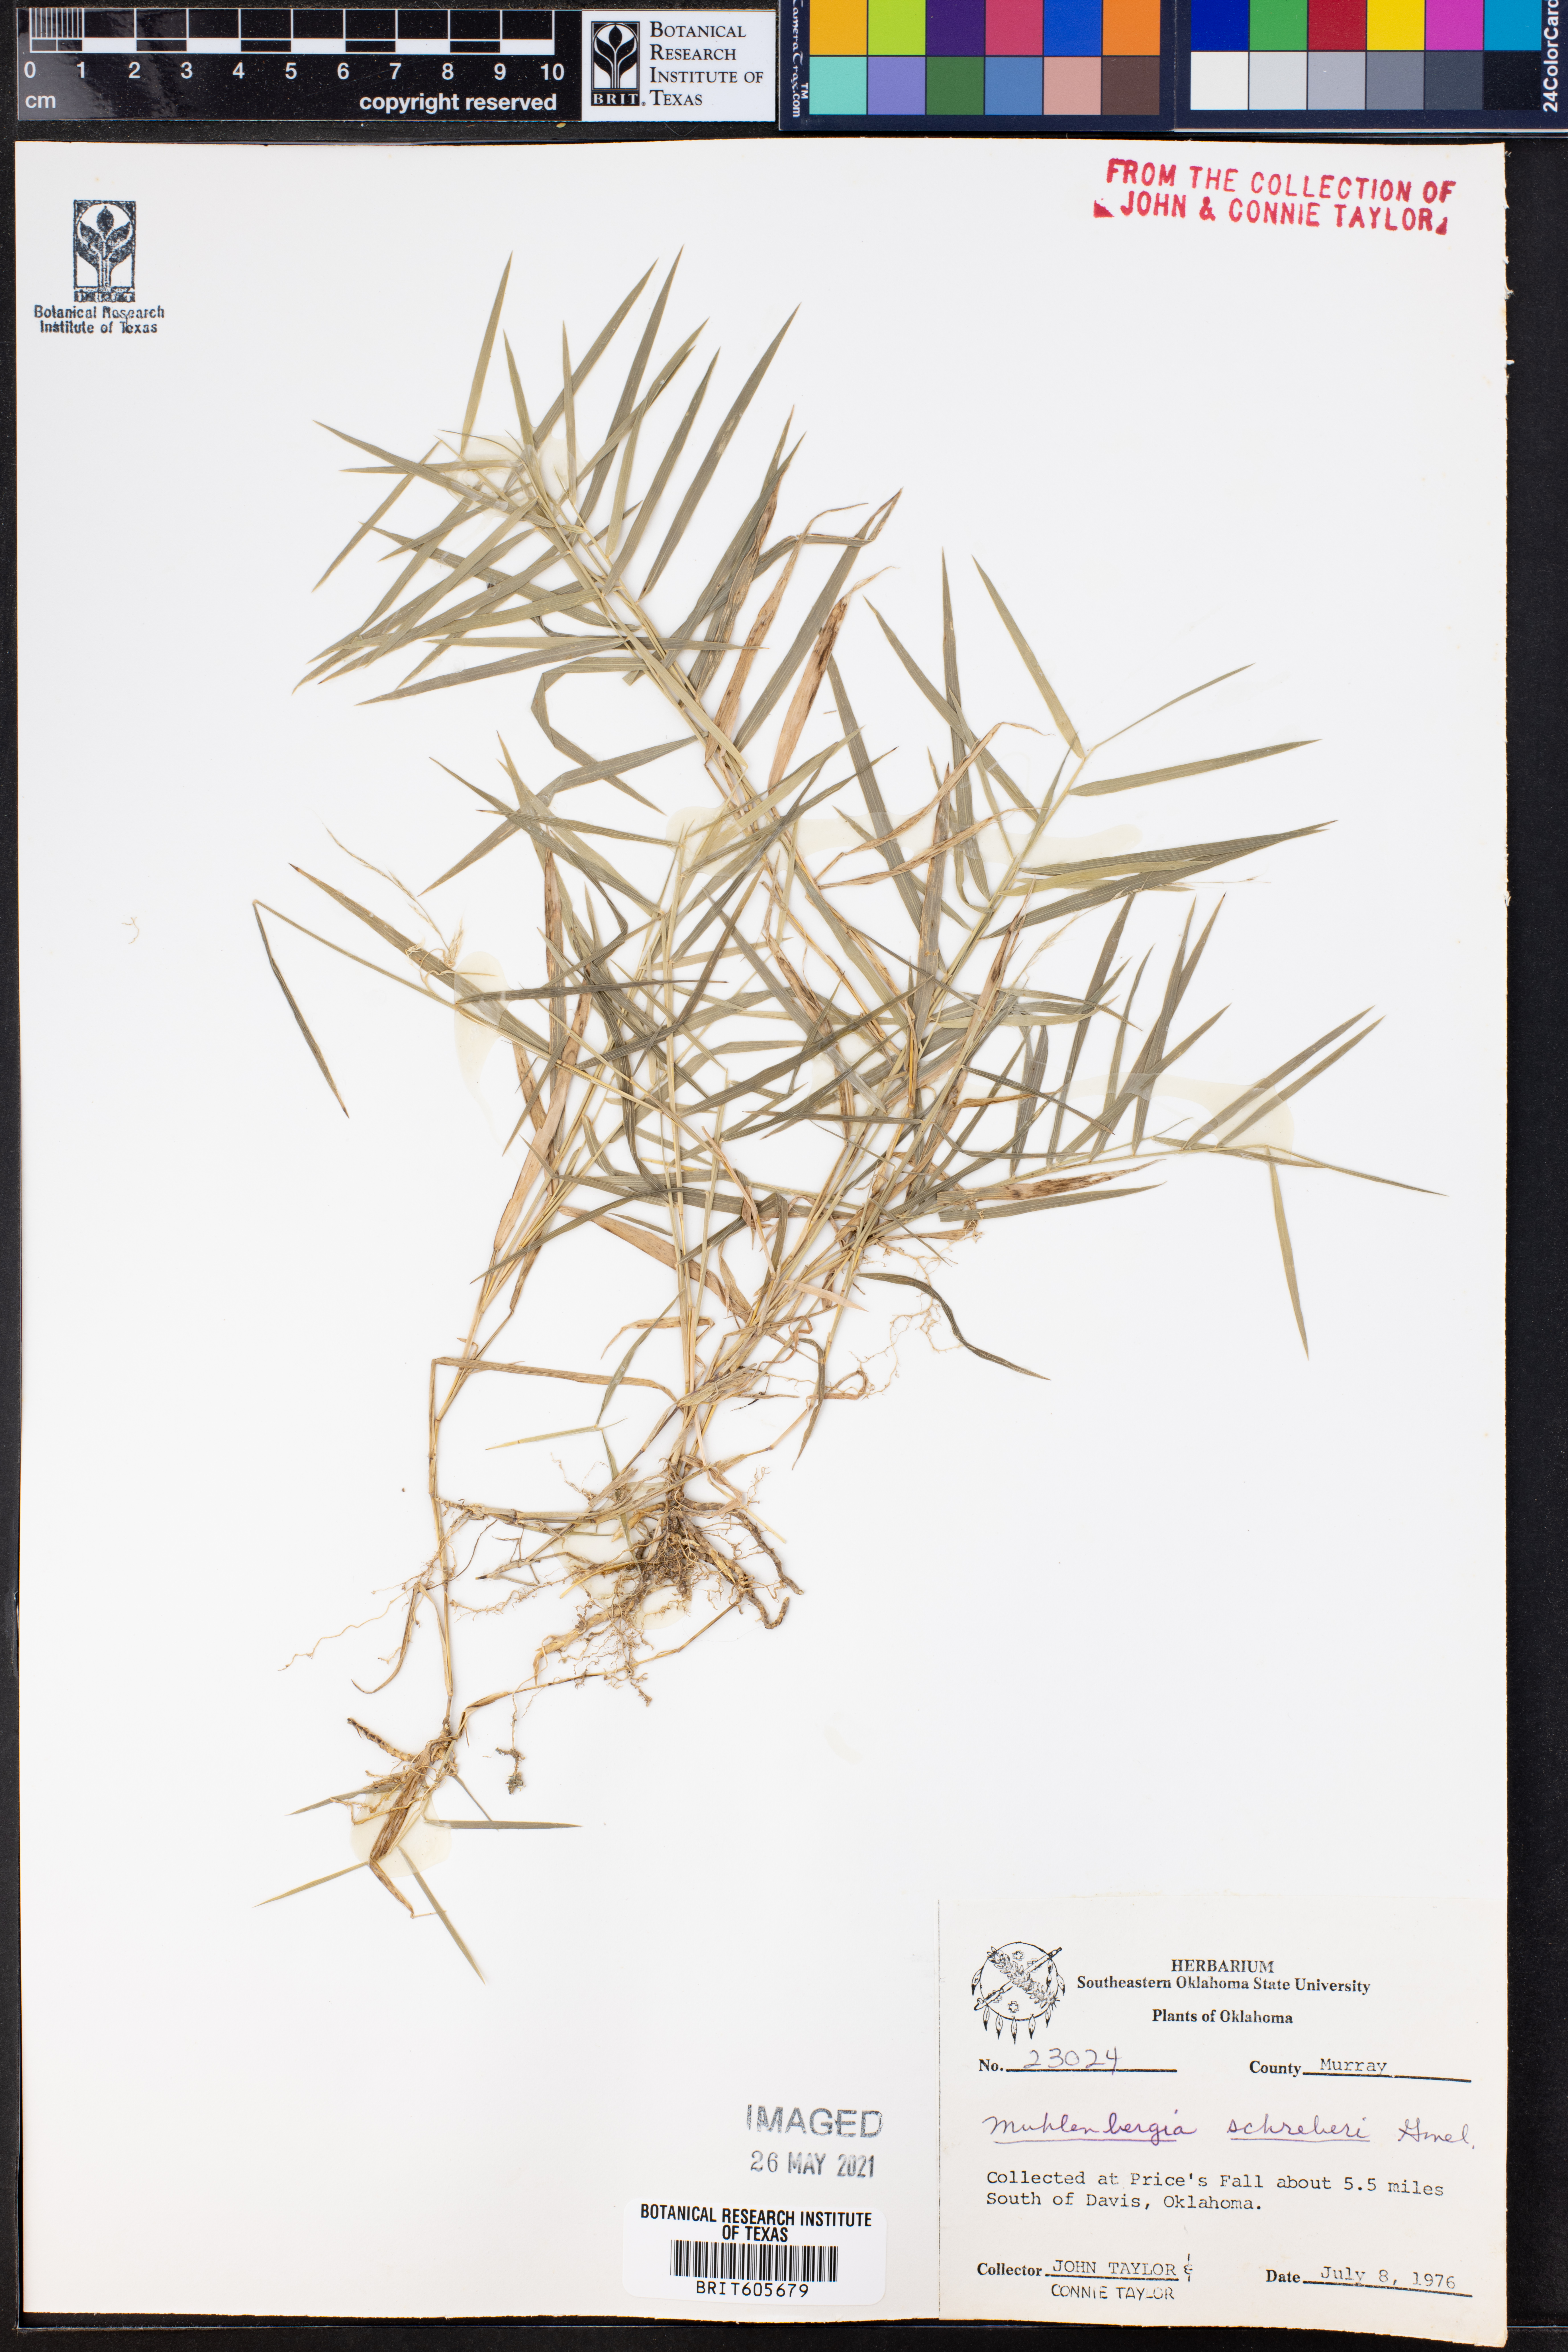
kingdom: Plantae
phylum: Tracheophyta
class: Liliopsida
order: Poales
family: Poaceae
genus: Muhlenbergia
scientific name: Muhlenbergia schreberi
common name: Nimblewill
